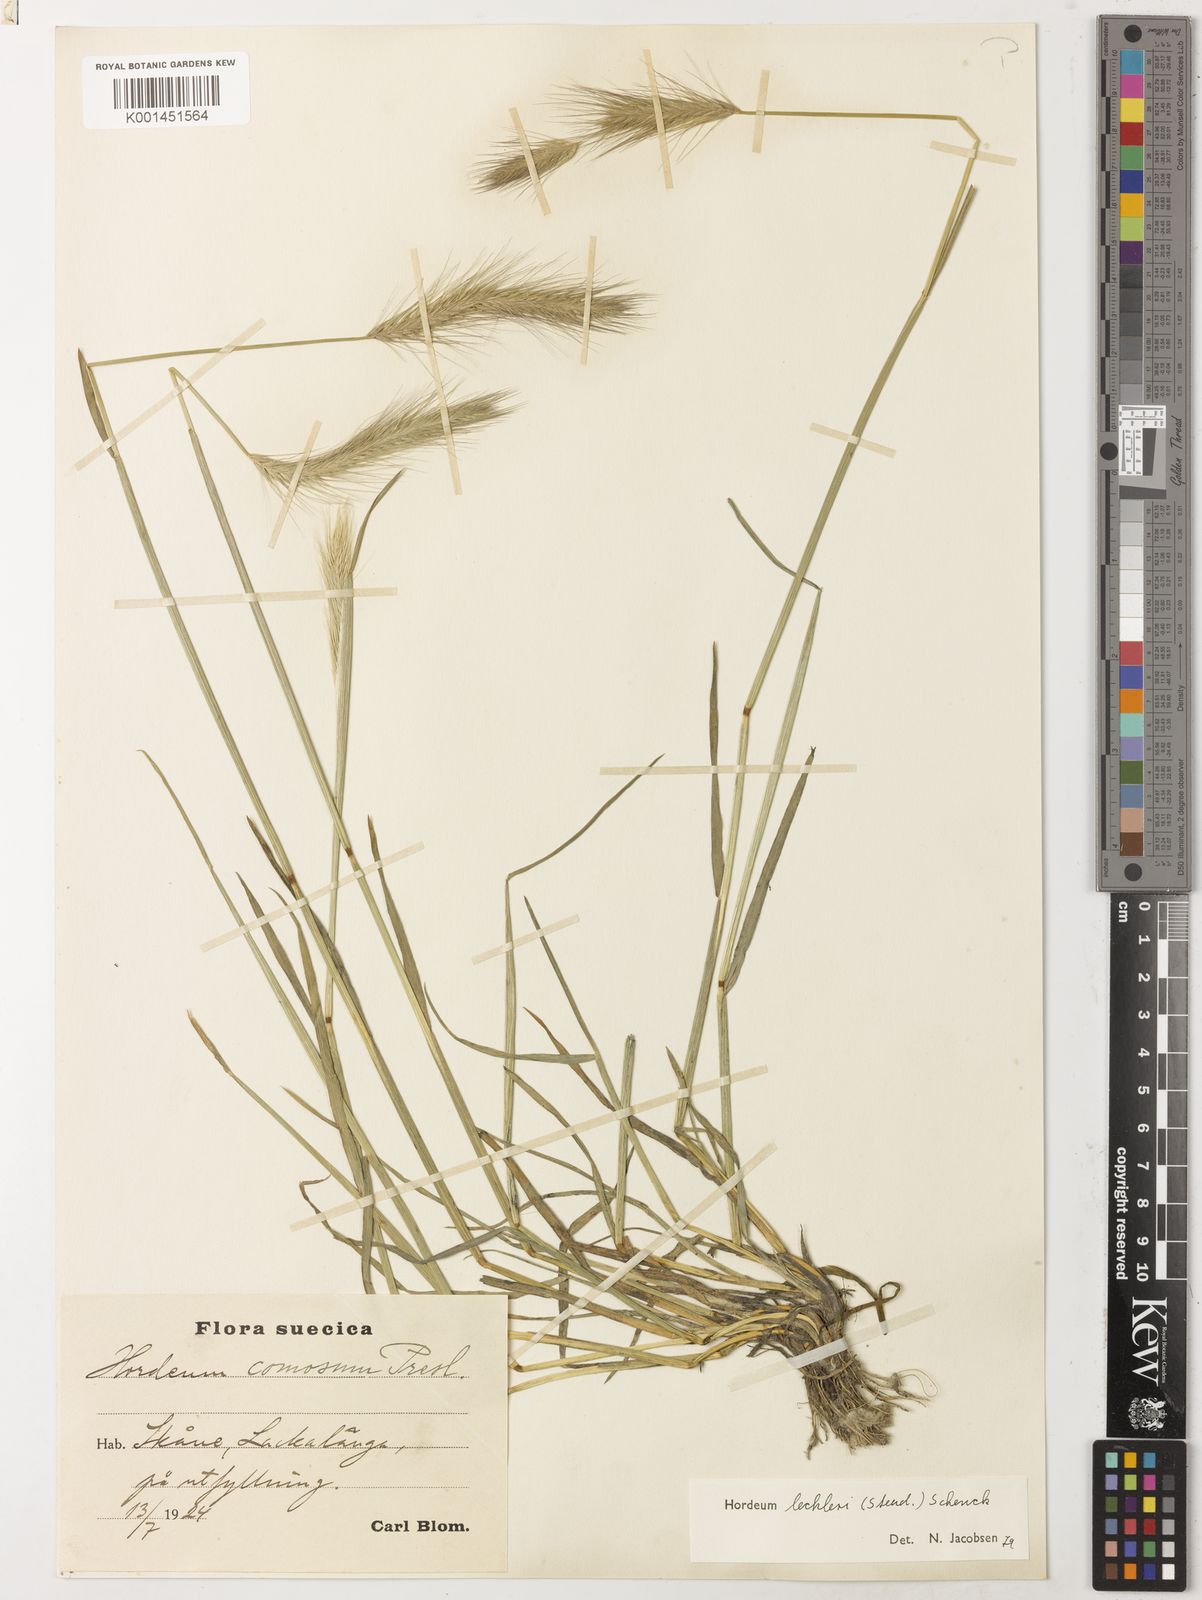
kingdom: Plantae
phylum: Tracheophyta
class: Liliopsida
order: Poales
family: Poaceae
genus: Hordeum
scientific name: Hordeum lechleri
